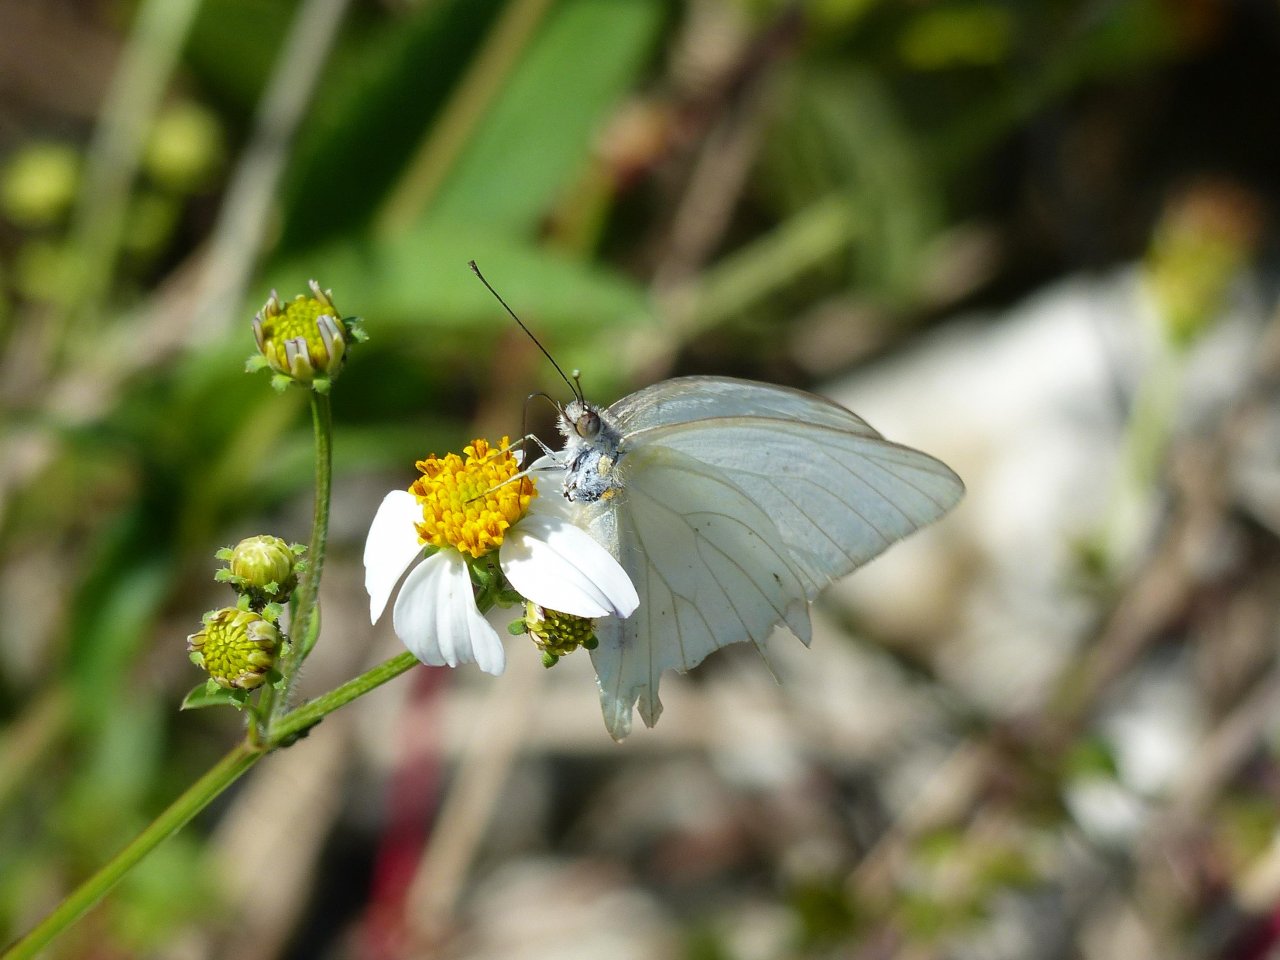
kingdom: Animalia
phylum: Arthropoda
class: Insecta
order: Lepidoptera
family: Pieridae
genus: Glutophrissa
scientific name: Glutophrissa drusilla
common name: Florida White
